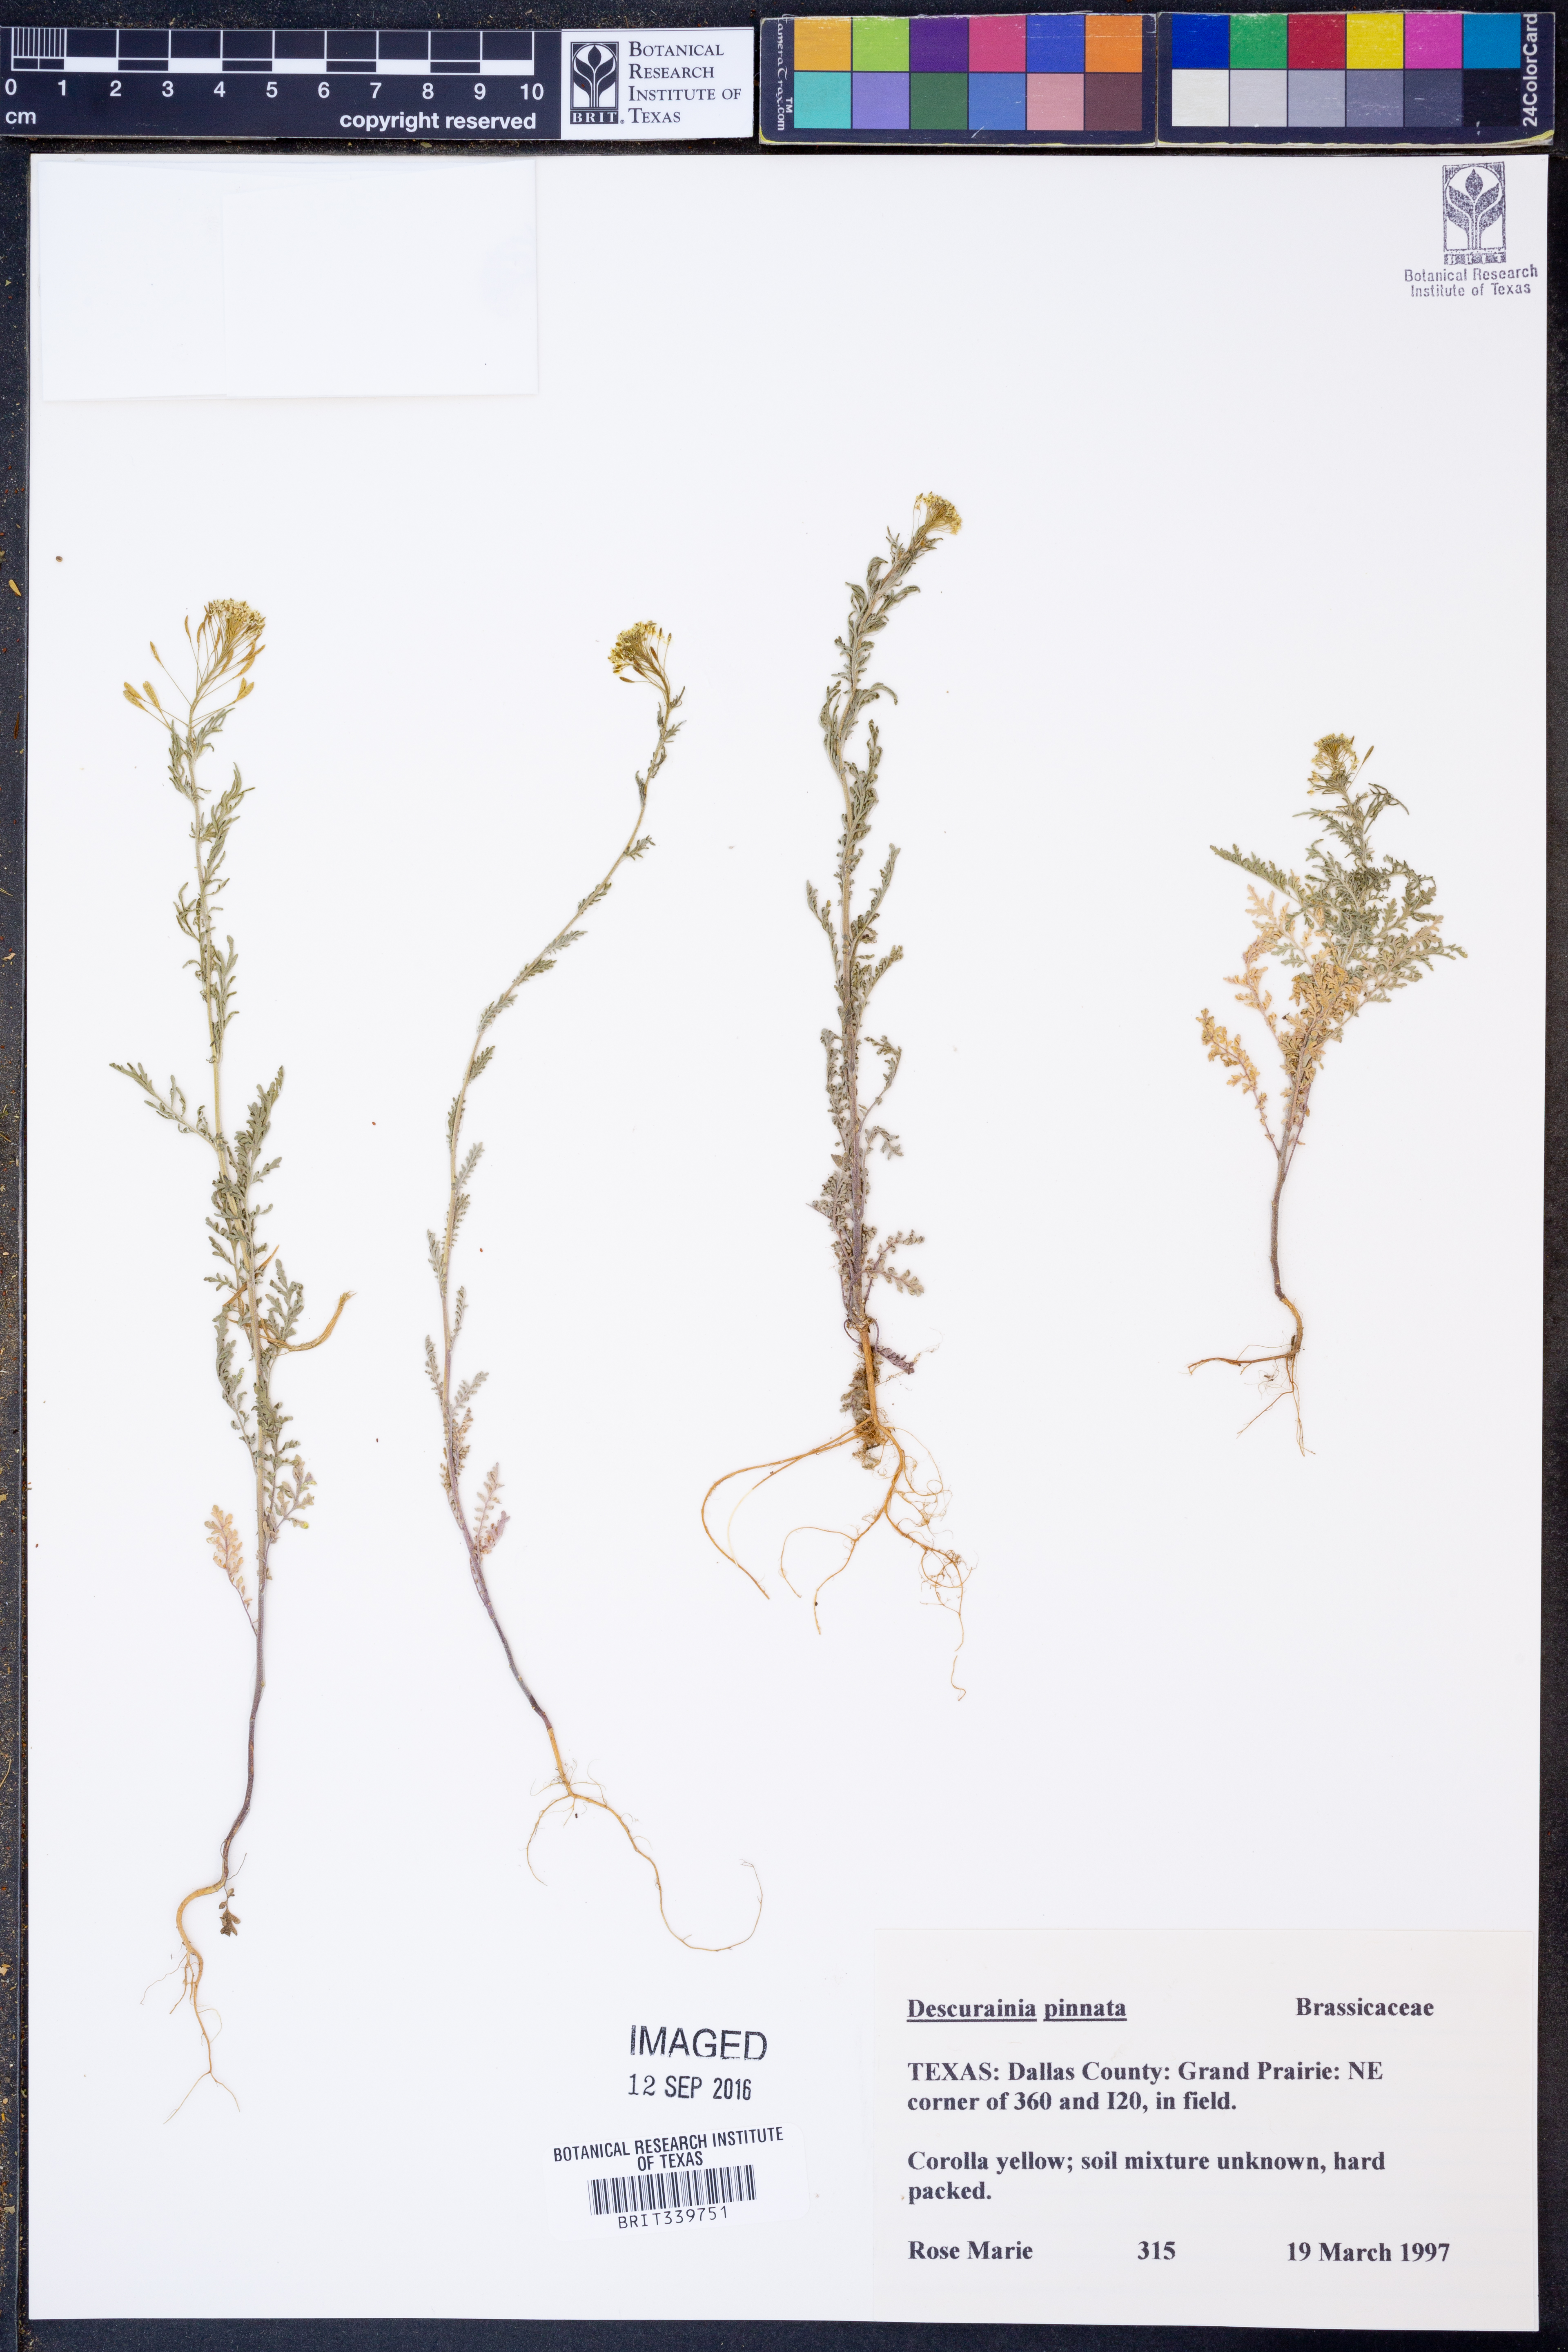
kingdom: Plantae
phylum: Tracheophyta
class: Magnoliopsida
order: Brassicales
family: Brassicaceae
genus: Descurainia
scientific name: Descurainia pinnata
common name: Western tansy mustard
